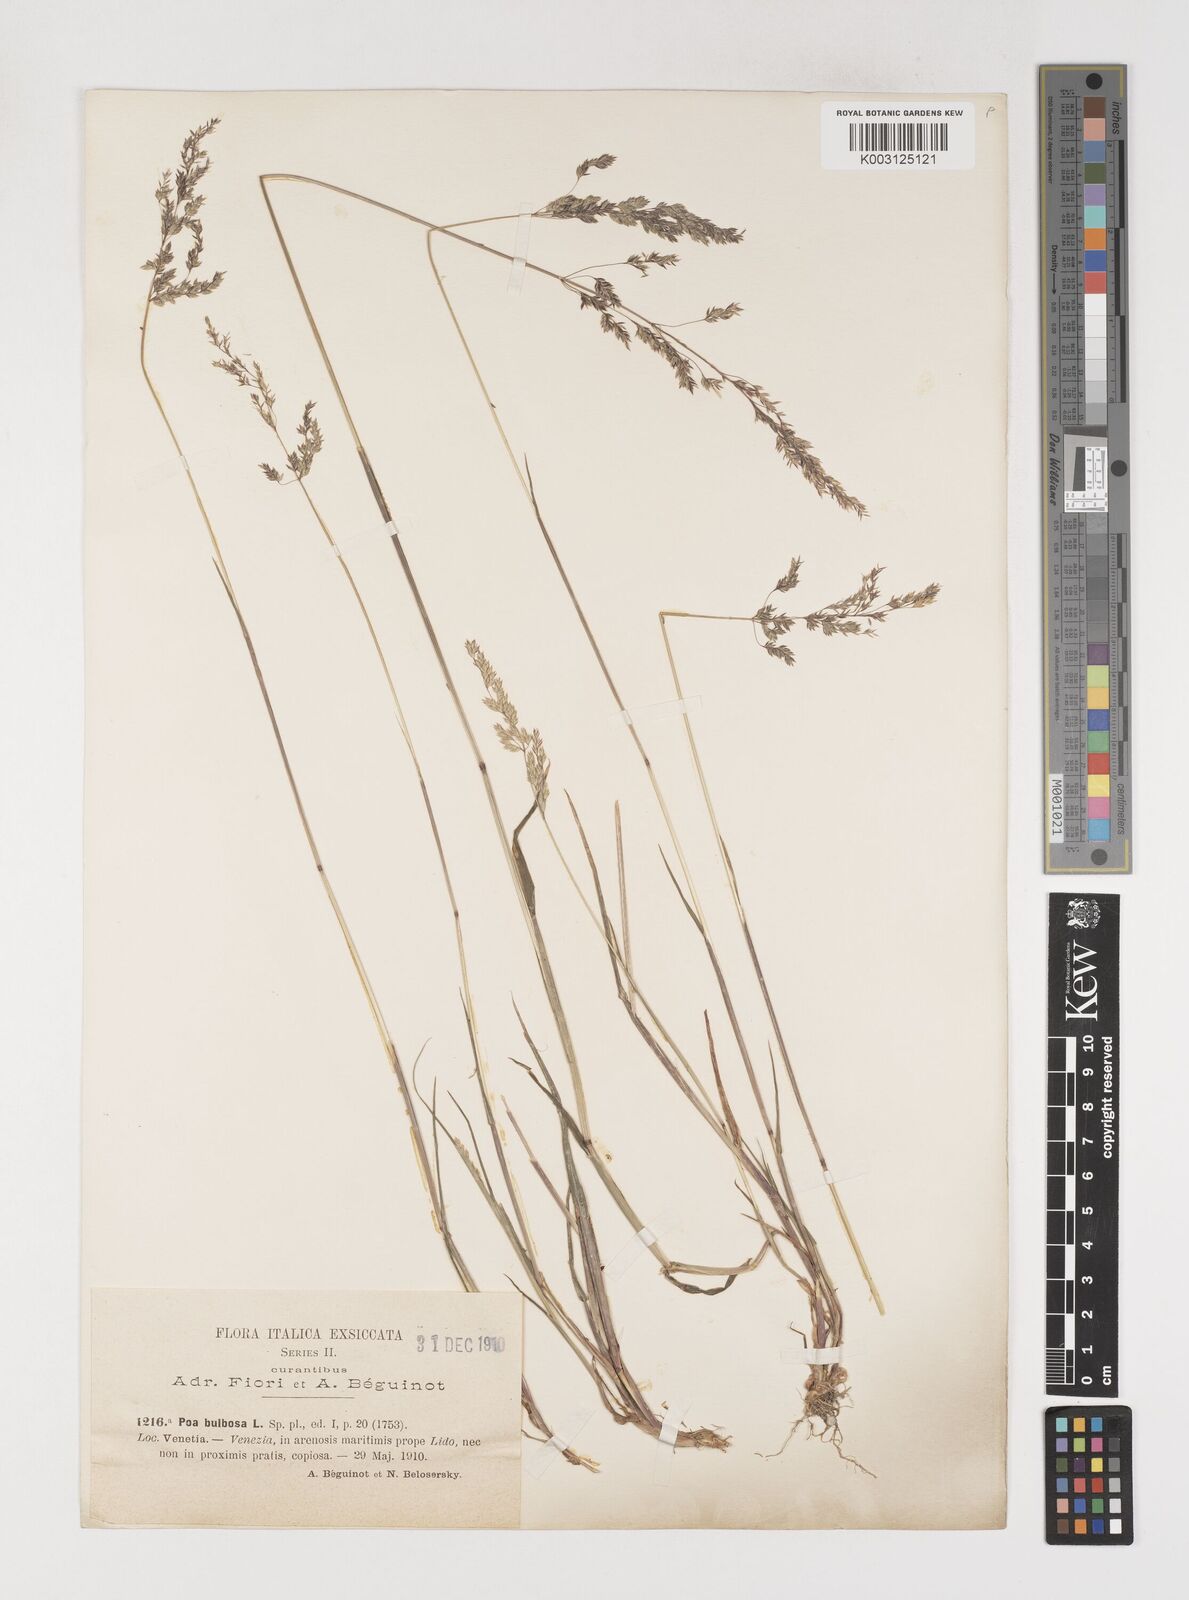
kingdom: Plantae
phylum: Tracheophyta
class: Liliopsida
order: Poales
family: Poaceae
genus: Poa
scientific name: Poa trivialis
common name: Rough bluegrass
